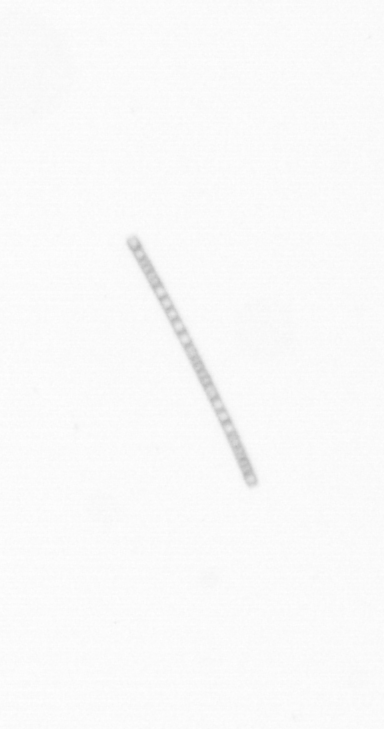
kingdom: Chromista
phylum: Ochrophyta
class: Bacillariophyceae
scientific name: Bacillariophyceae
